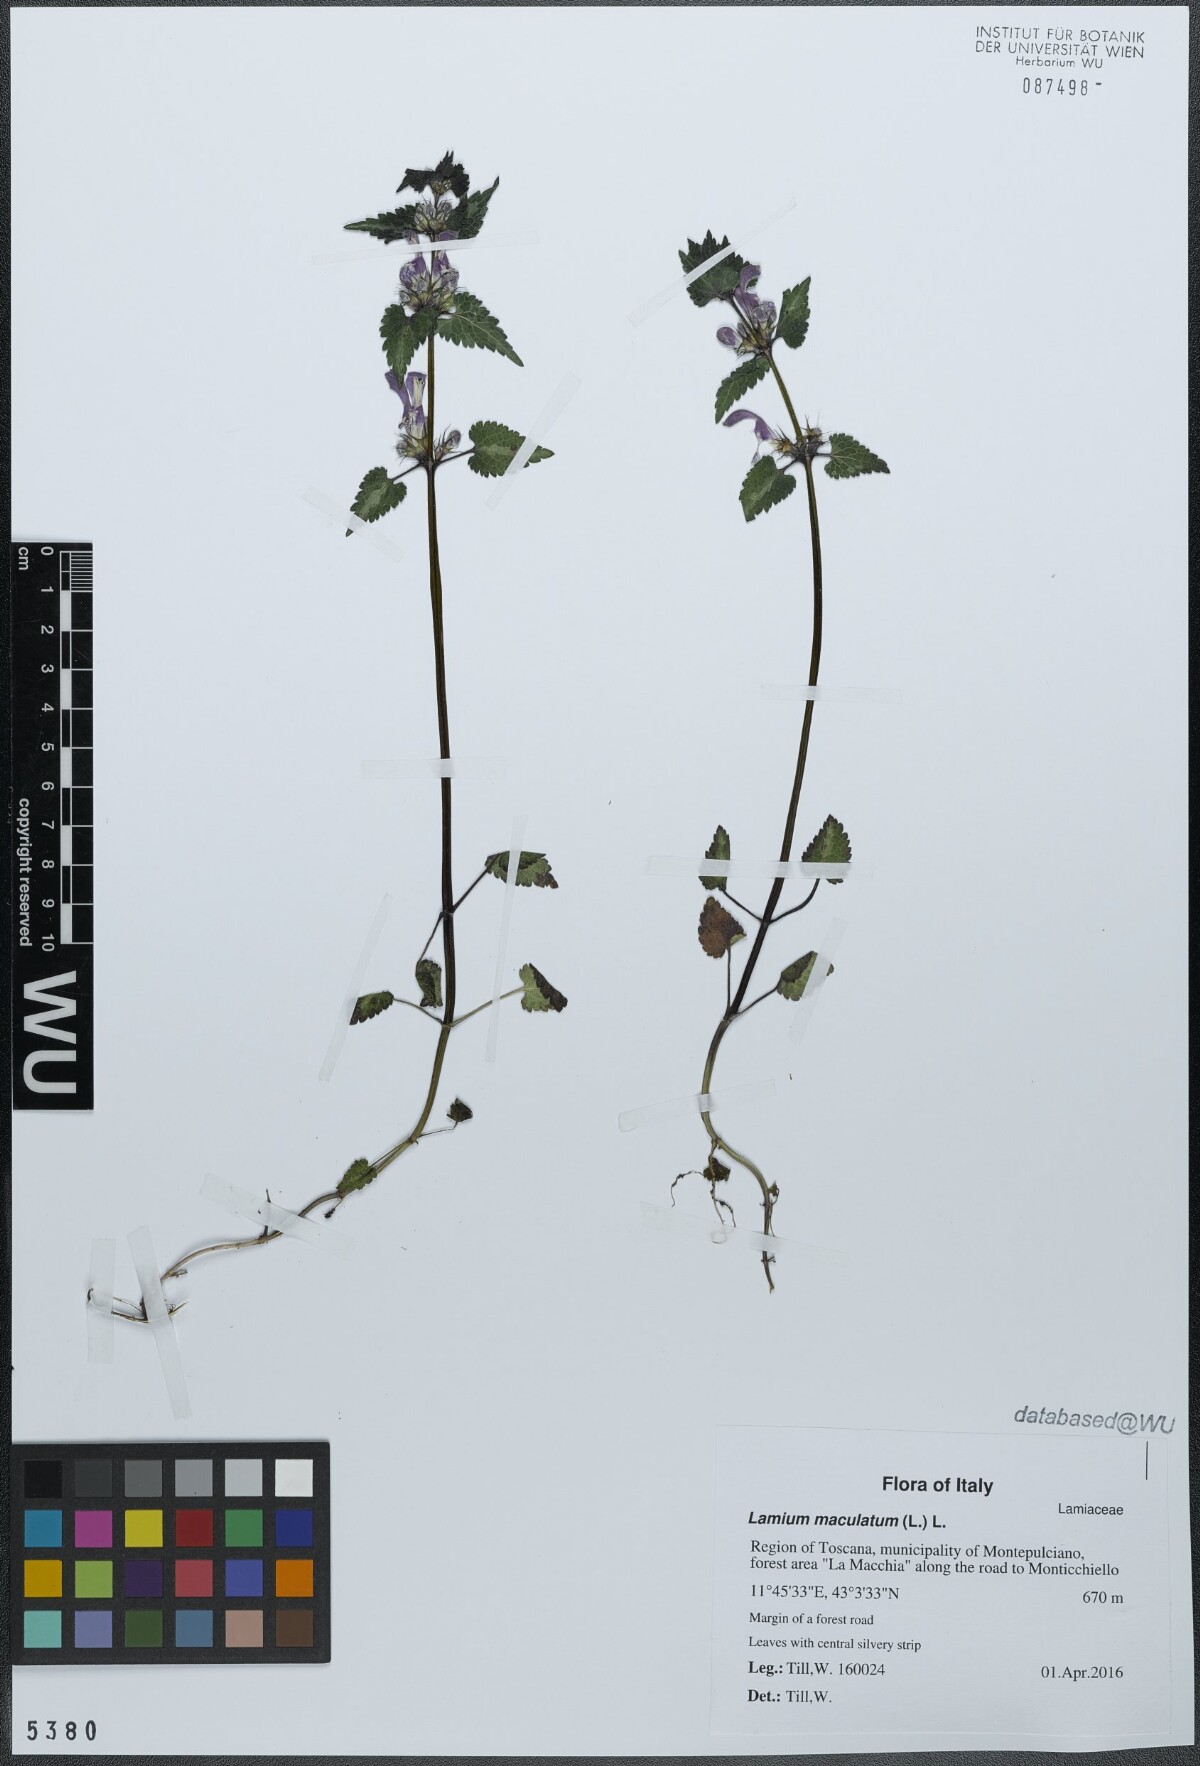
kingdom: Plantae
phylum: Tracheophyta
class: Magnoliopsida
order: Lamiales
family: Lamiaceae
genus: Lamium
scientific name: Lamium maculatum
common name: Spotted dead-nettle
